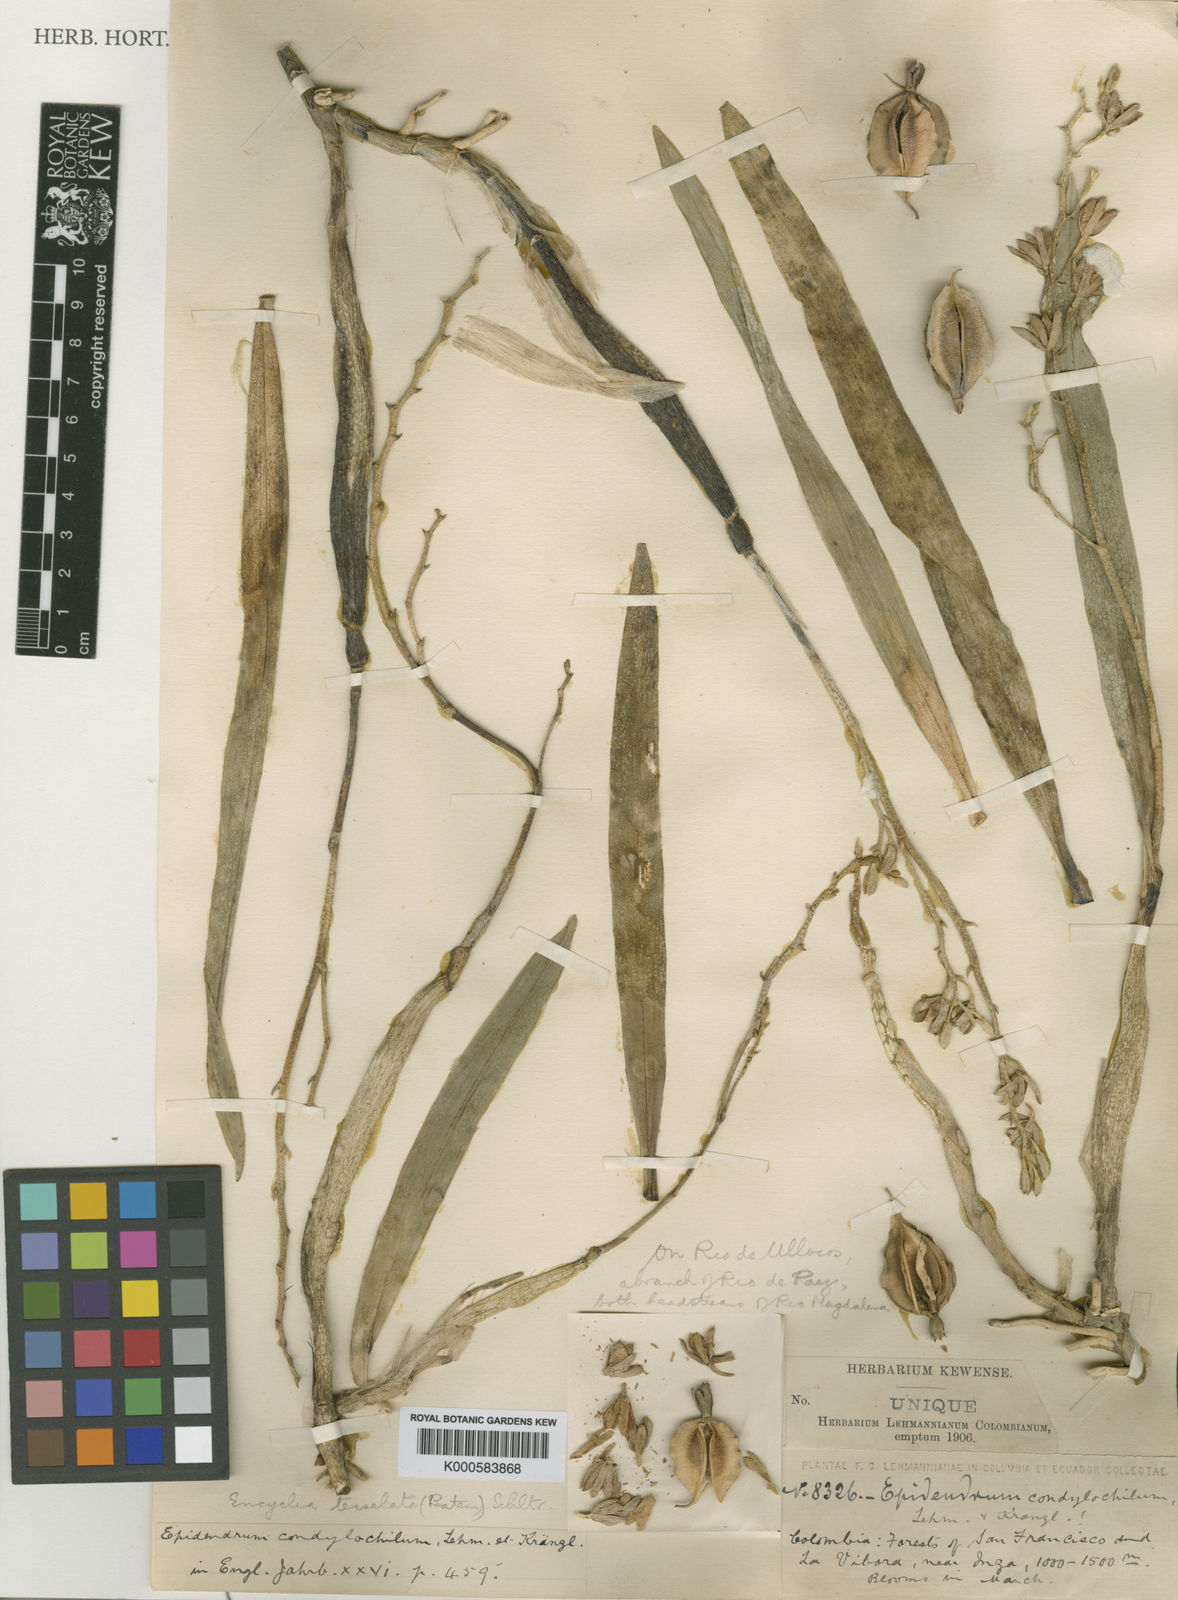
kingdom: Plantae
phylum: Tracheophyta
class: Liliopsida
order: Asparagales
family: Orchidaceae
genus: Prosthechea
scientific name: Prosthechea livida
